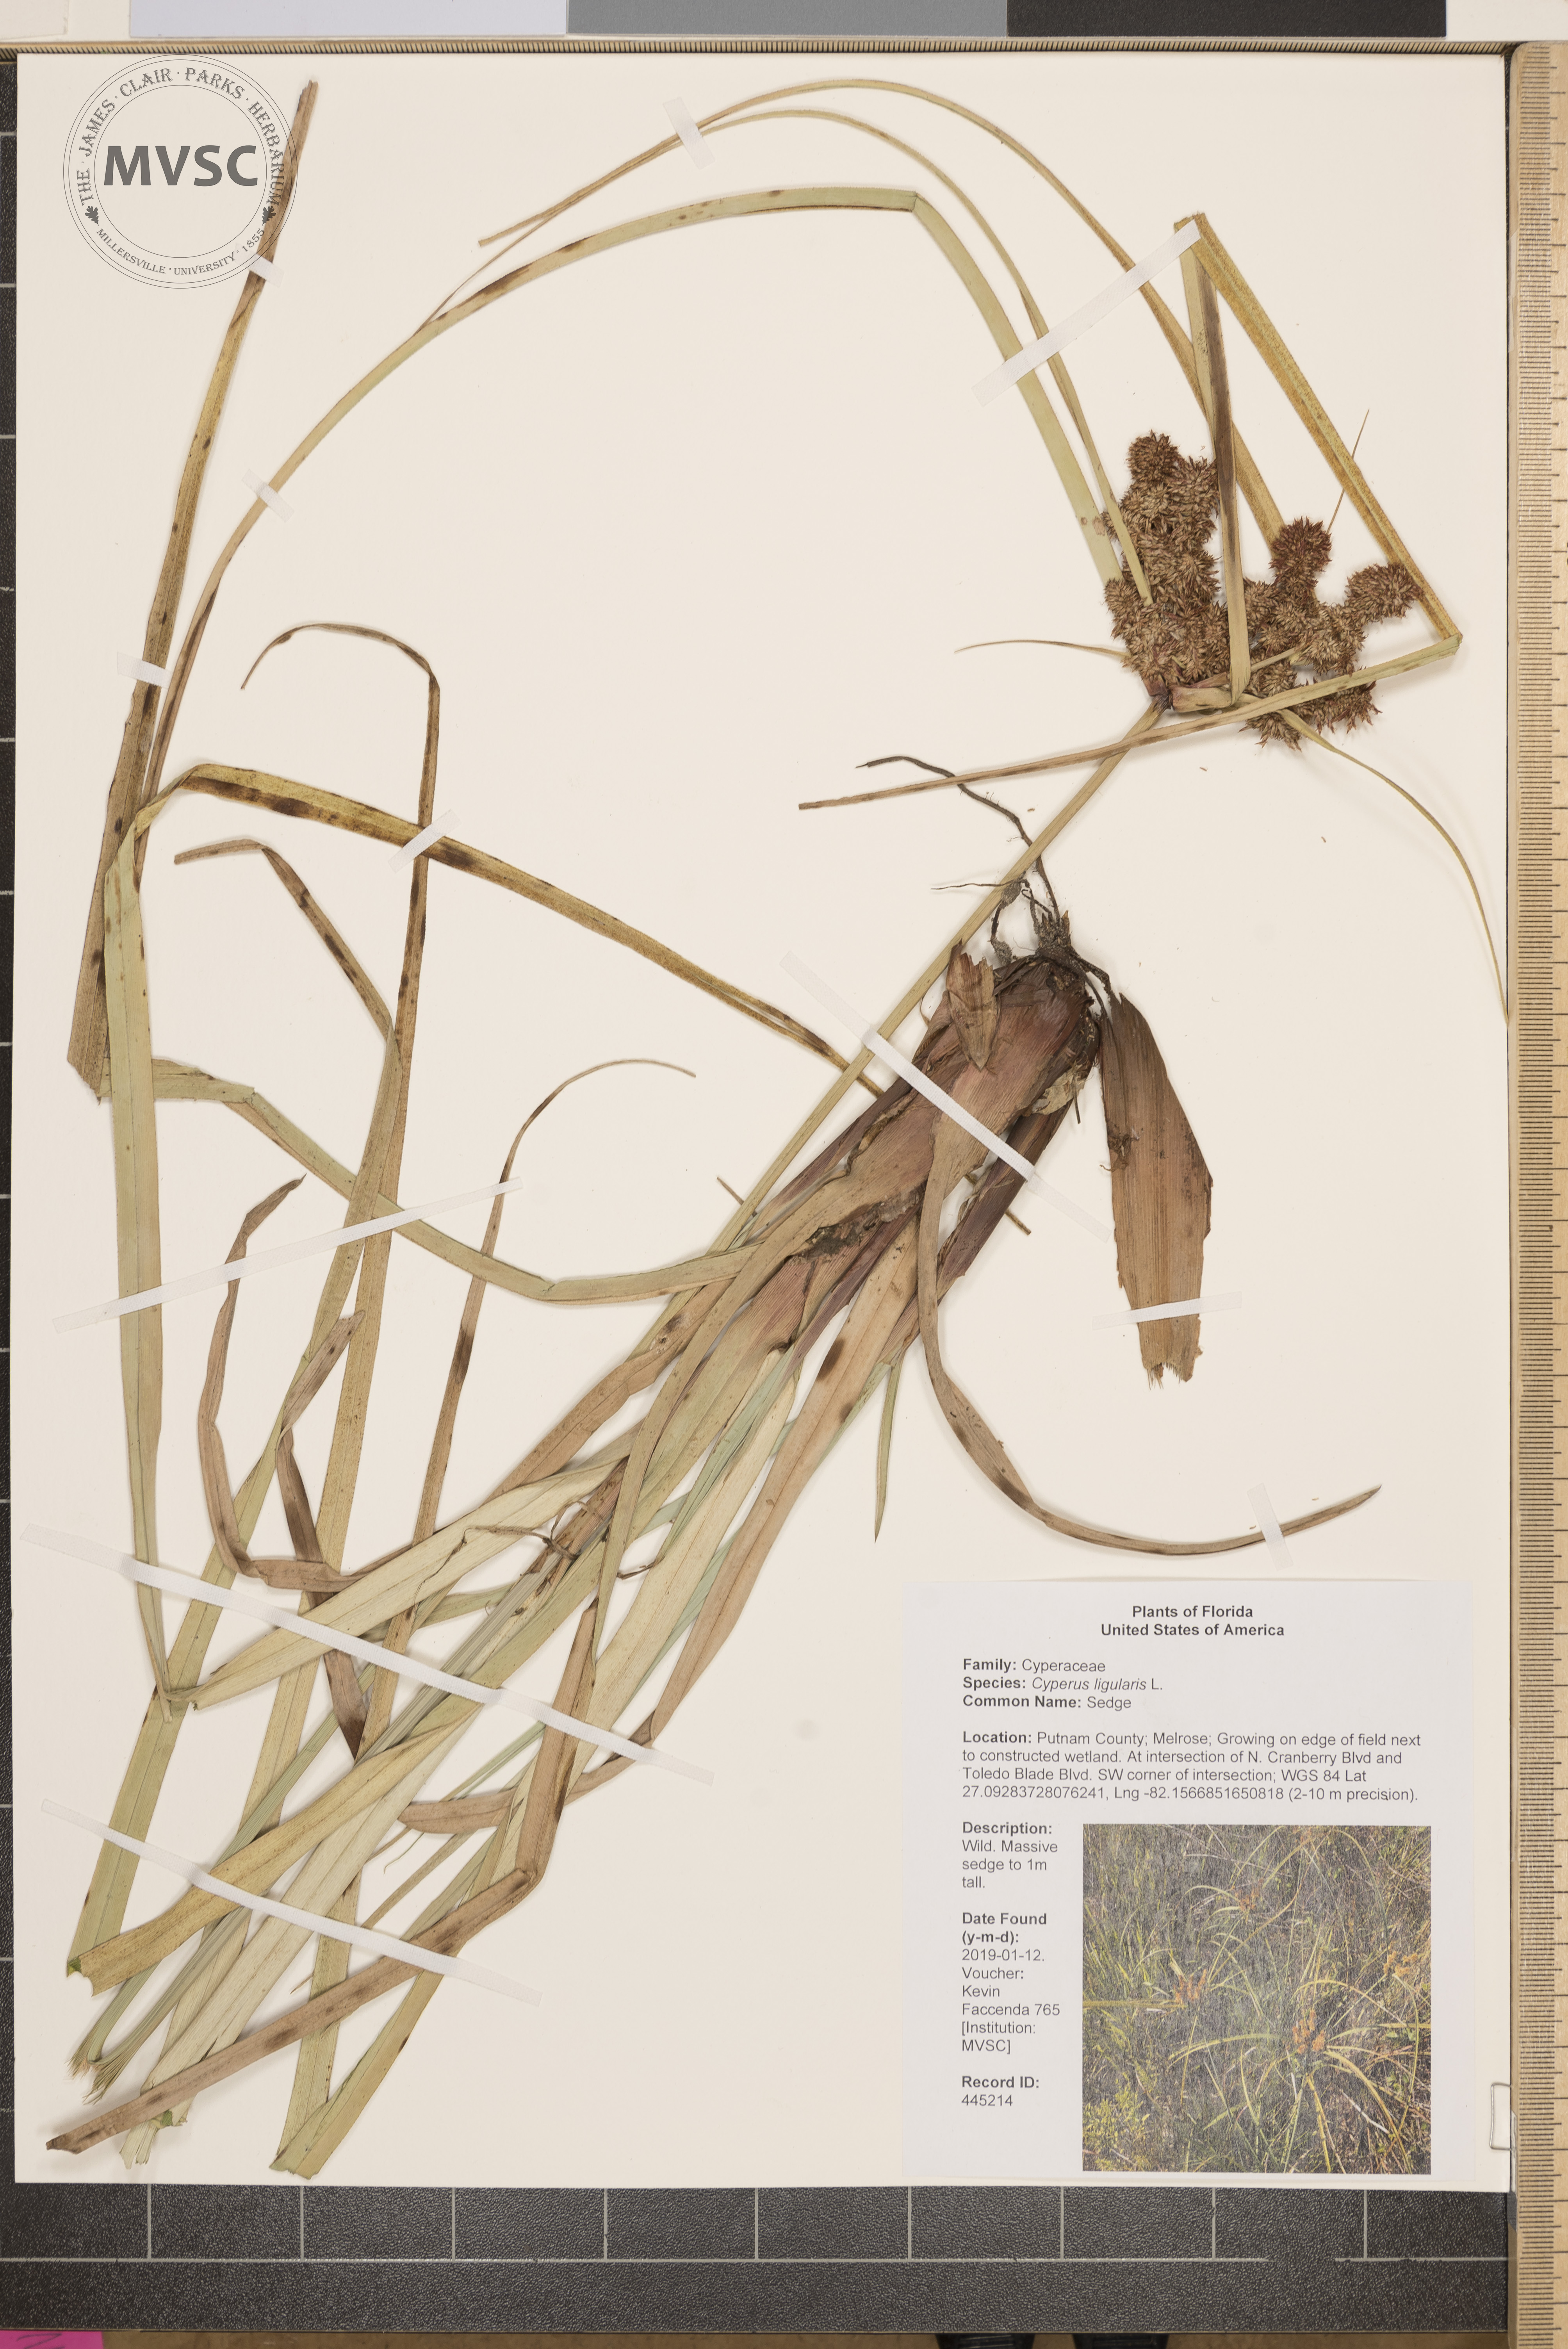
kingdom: Plantae
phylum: Tracheophyta
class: Liliopsida
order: Poales
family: Cyperaceae
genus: Cyperus
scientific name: Cyperus ligularis
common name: Sedge
